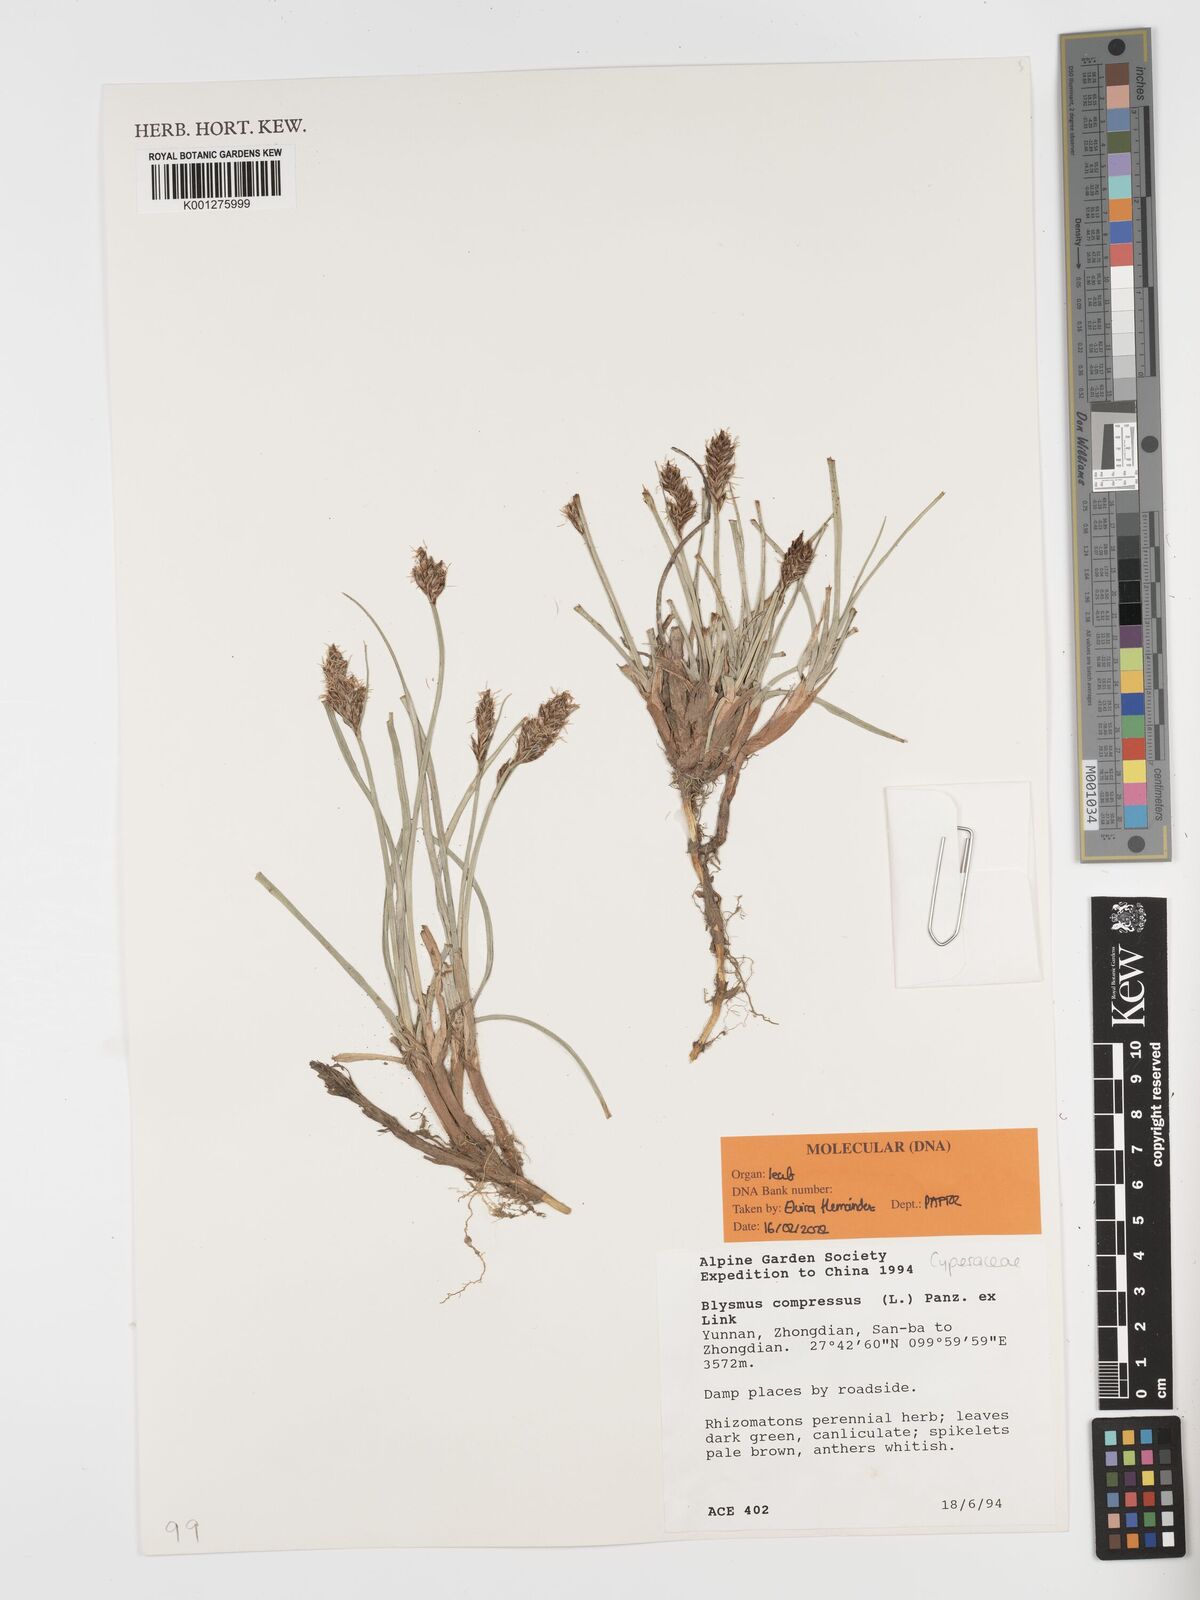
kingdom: Plantae
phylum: Tracheophyta
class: Liliopsida
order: Poales
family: Cyperaceae
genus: Blysmus
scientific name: Blysmus compressus
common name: Flat-sedge
